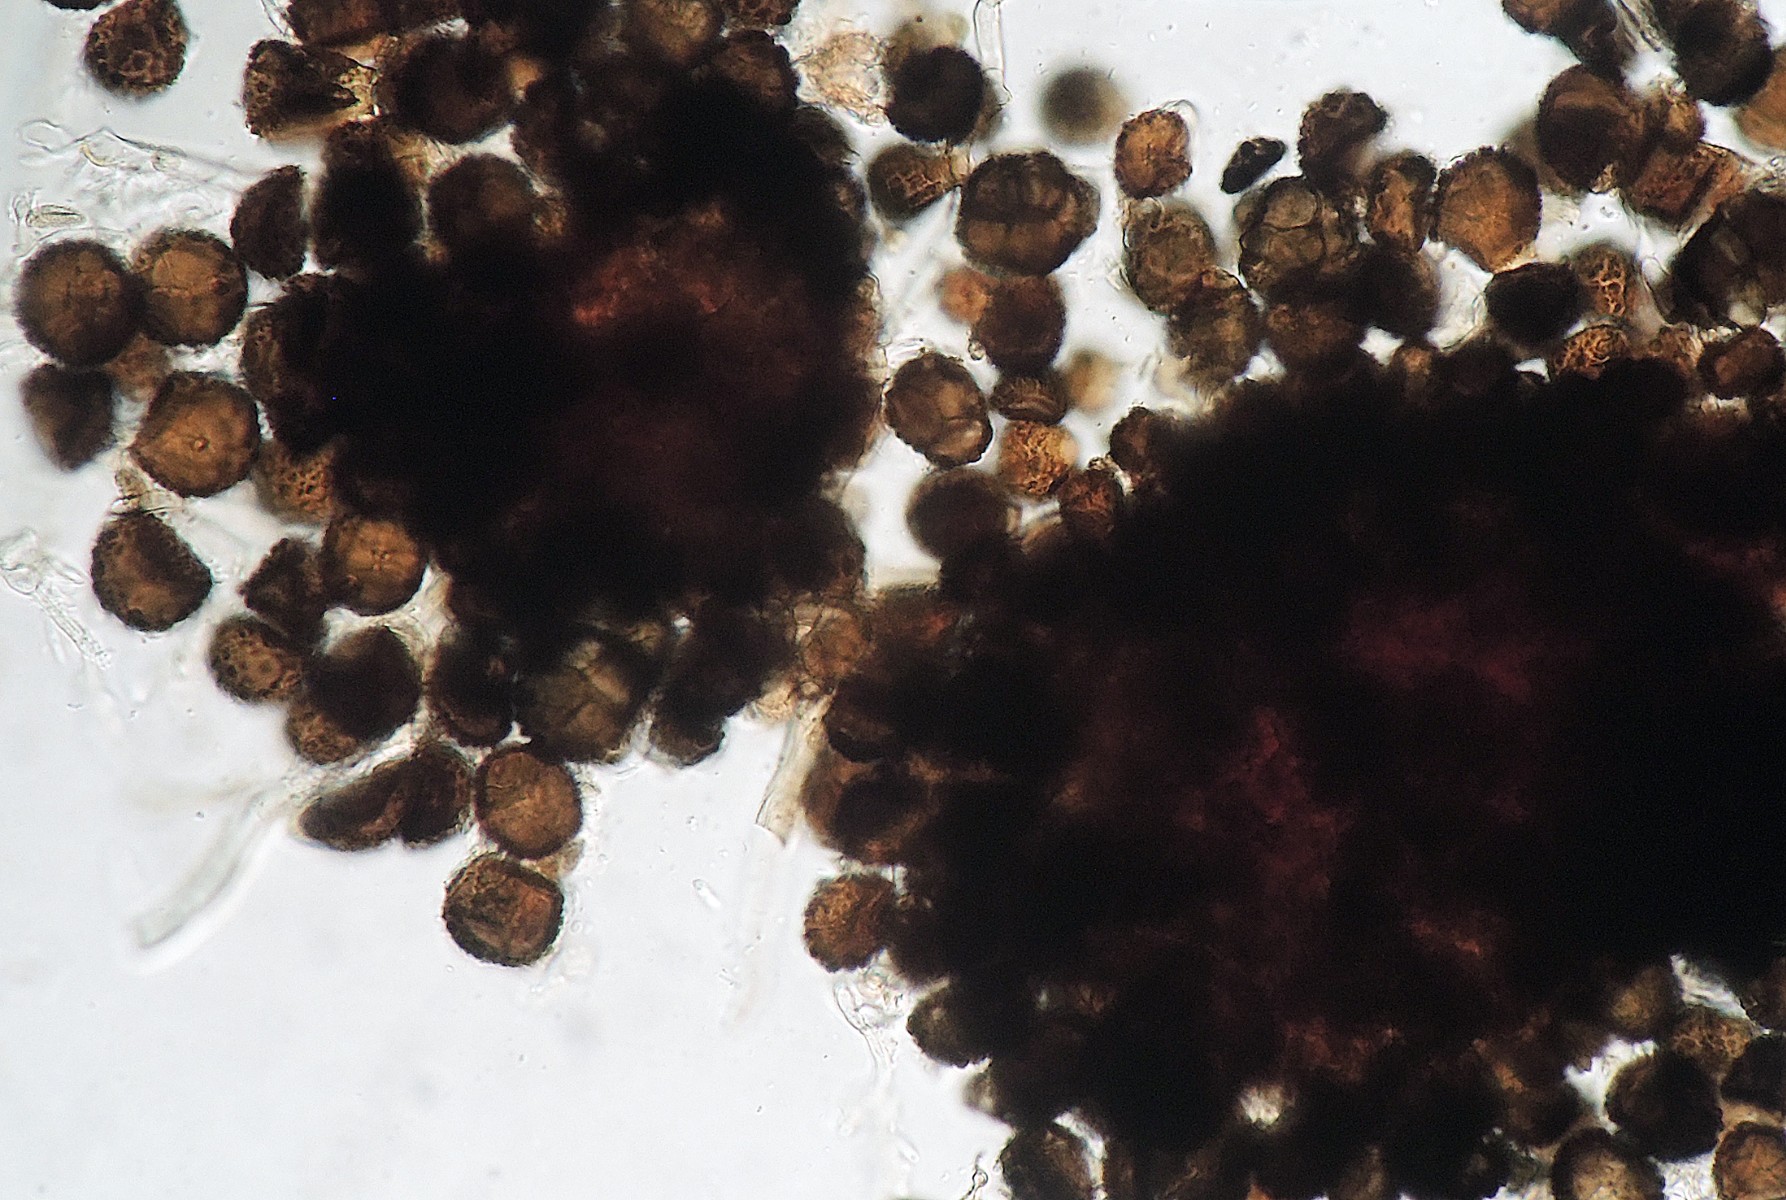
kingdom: Fungi
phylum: Ascomycota
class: Dothideomycetes
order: Pleosporales
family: Pleosporaceae
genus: Alternaria
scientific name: Alternaria botrytis
